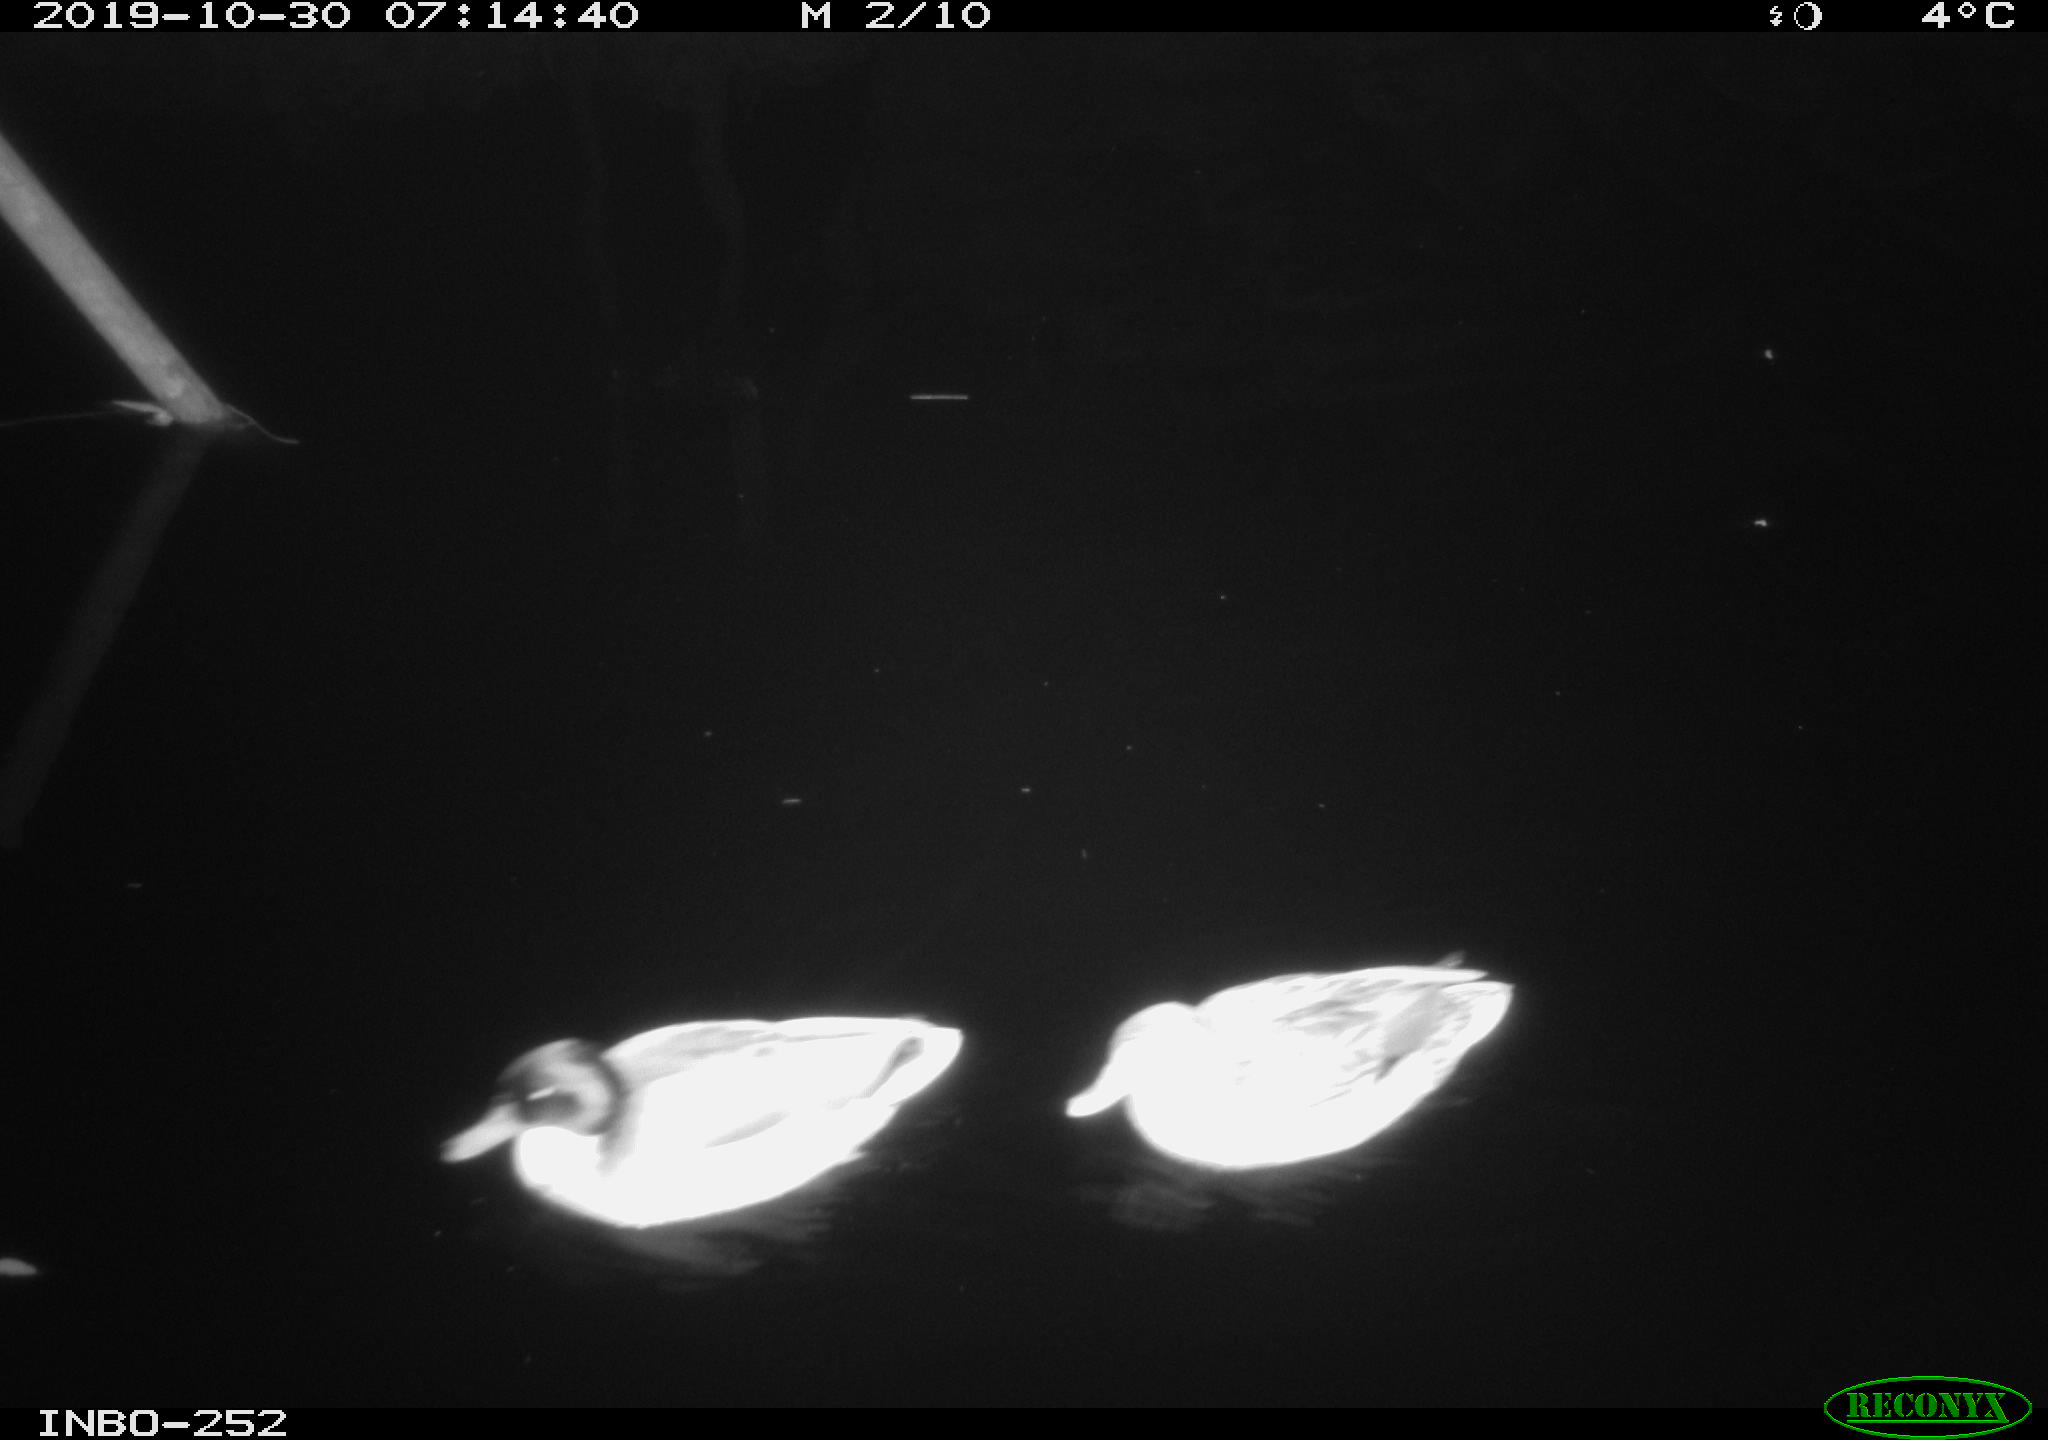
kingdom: Animalia
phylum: Chordata
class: Aves
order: Anseriformes
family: Anatidae
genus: Anas
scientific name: Anas platyrhynchos
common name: Mallard
